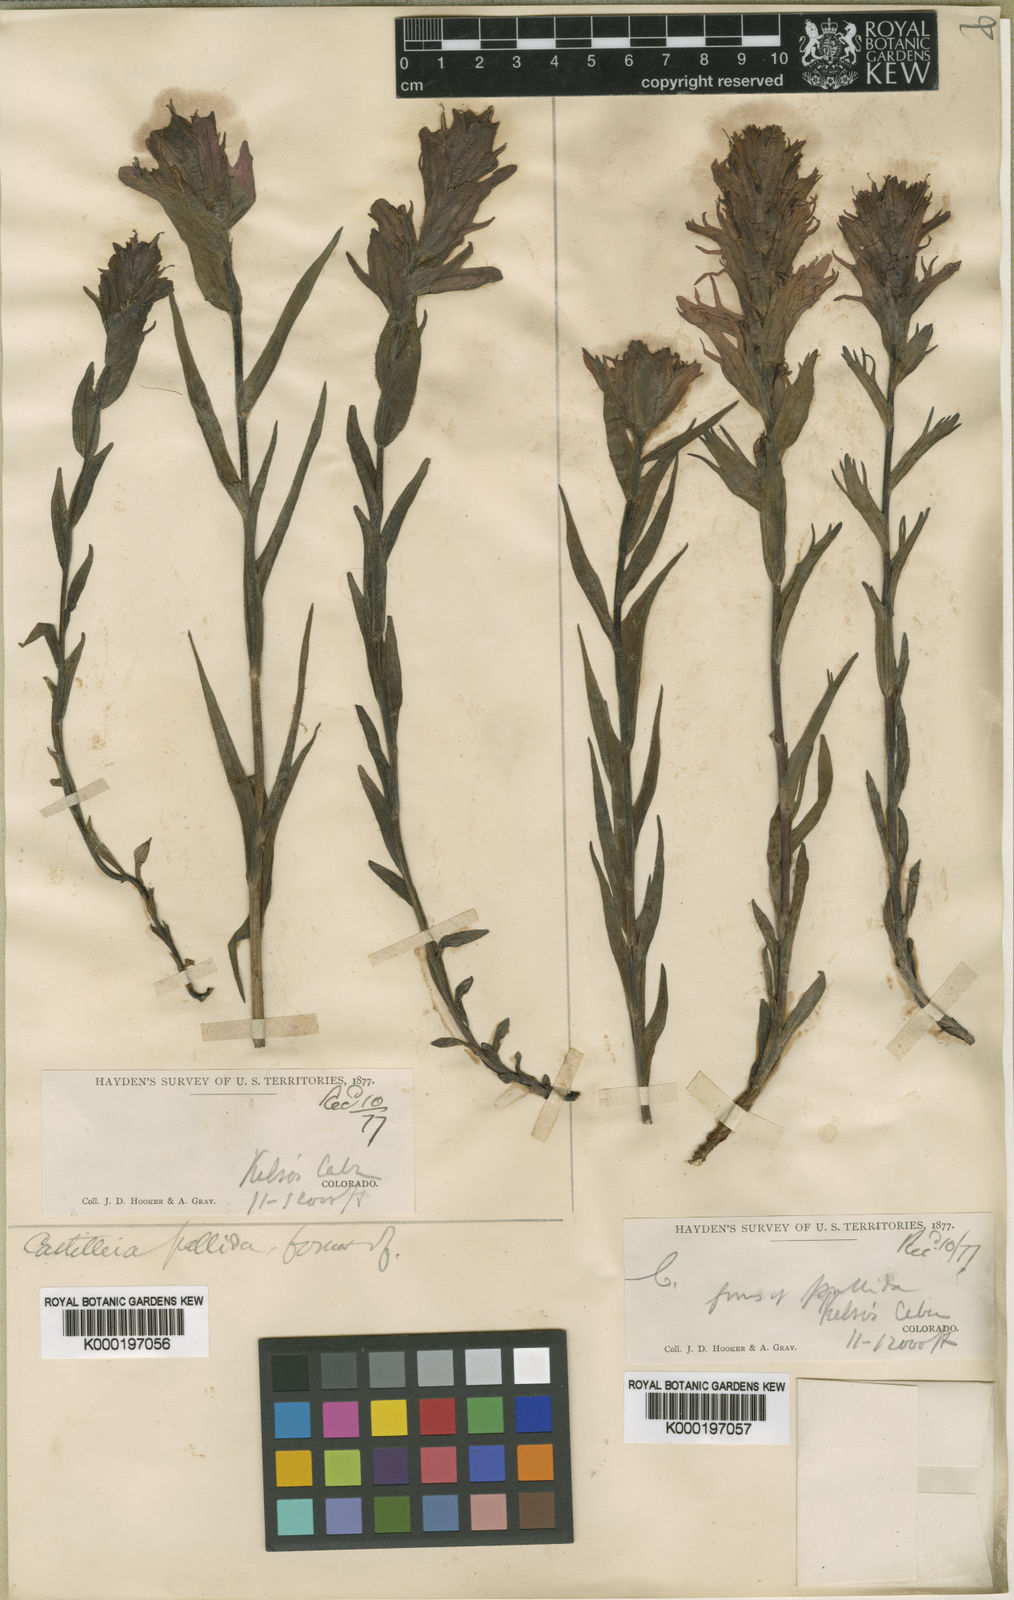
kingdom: Plantae
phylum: Tracheophyta
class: Magnoliopsida
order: Lamiales
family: Orobanchaceae
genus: Castilleja
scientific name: Castilleja pallida
